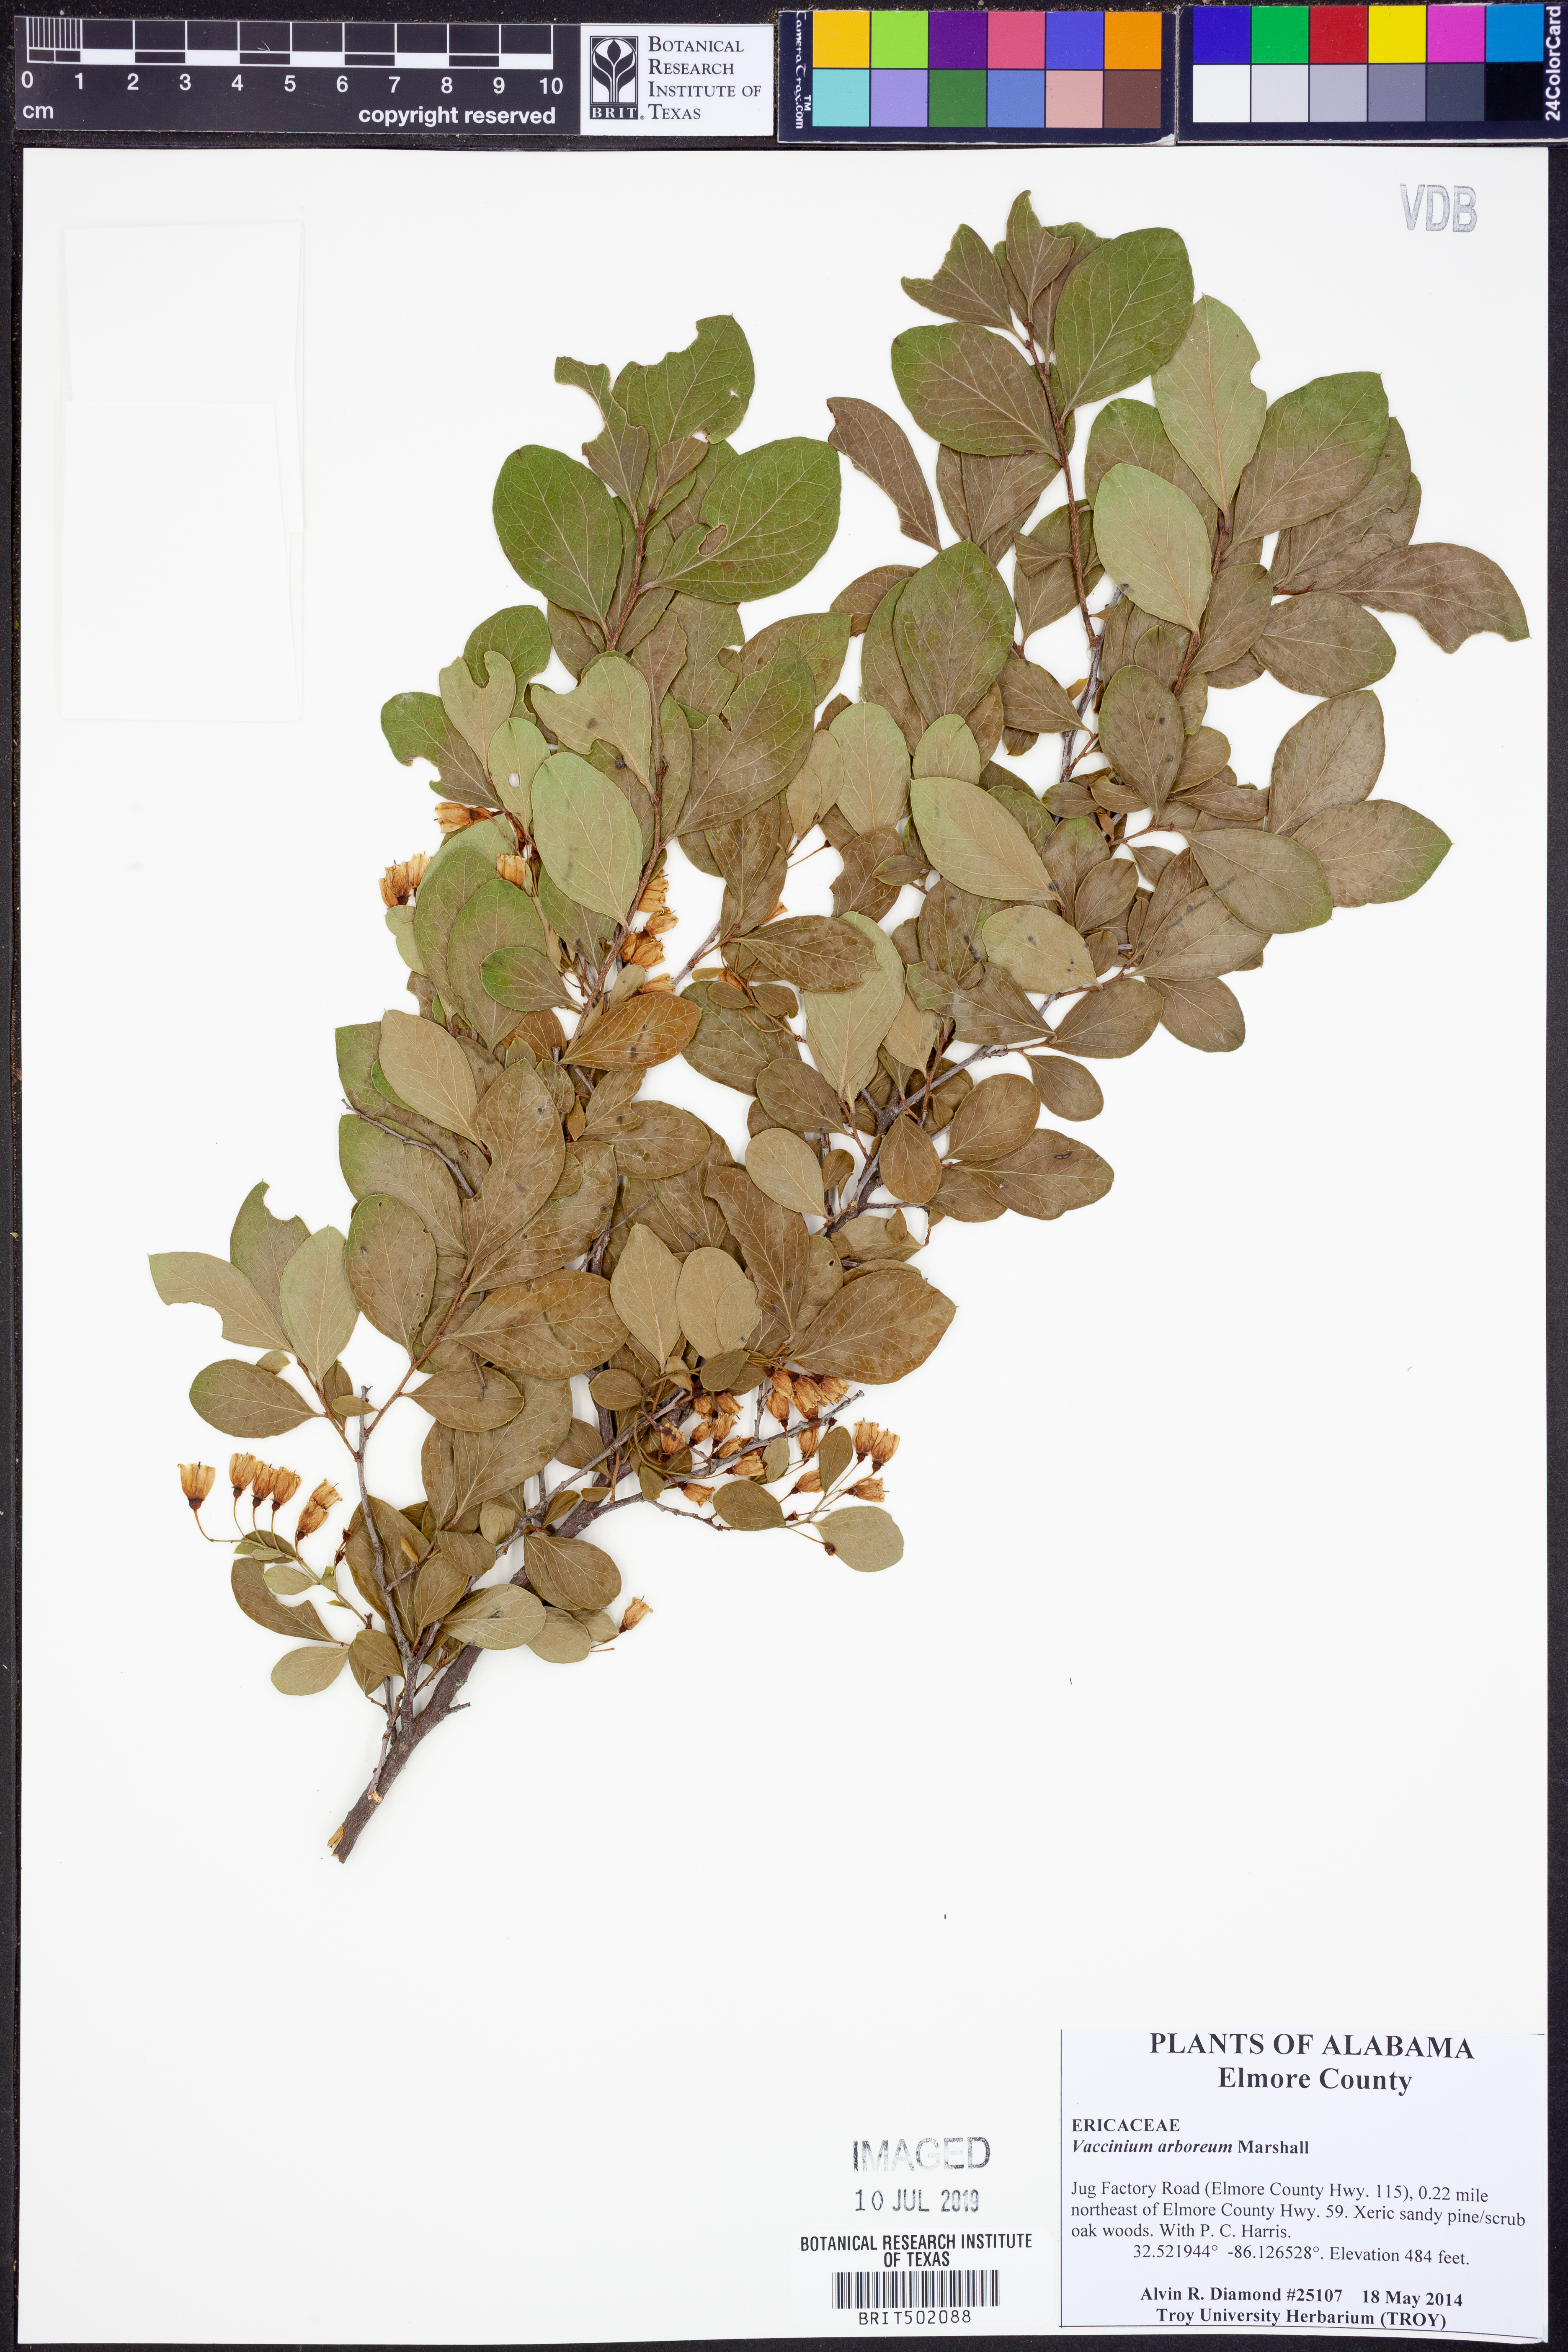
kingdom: Plantae
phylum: Tracheophyta
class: Magnoliopsida
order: Ericales
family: Ericaceae
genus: Vaccinium
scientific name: Vaccinium arboreum
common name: Farkleberry
